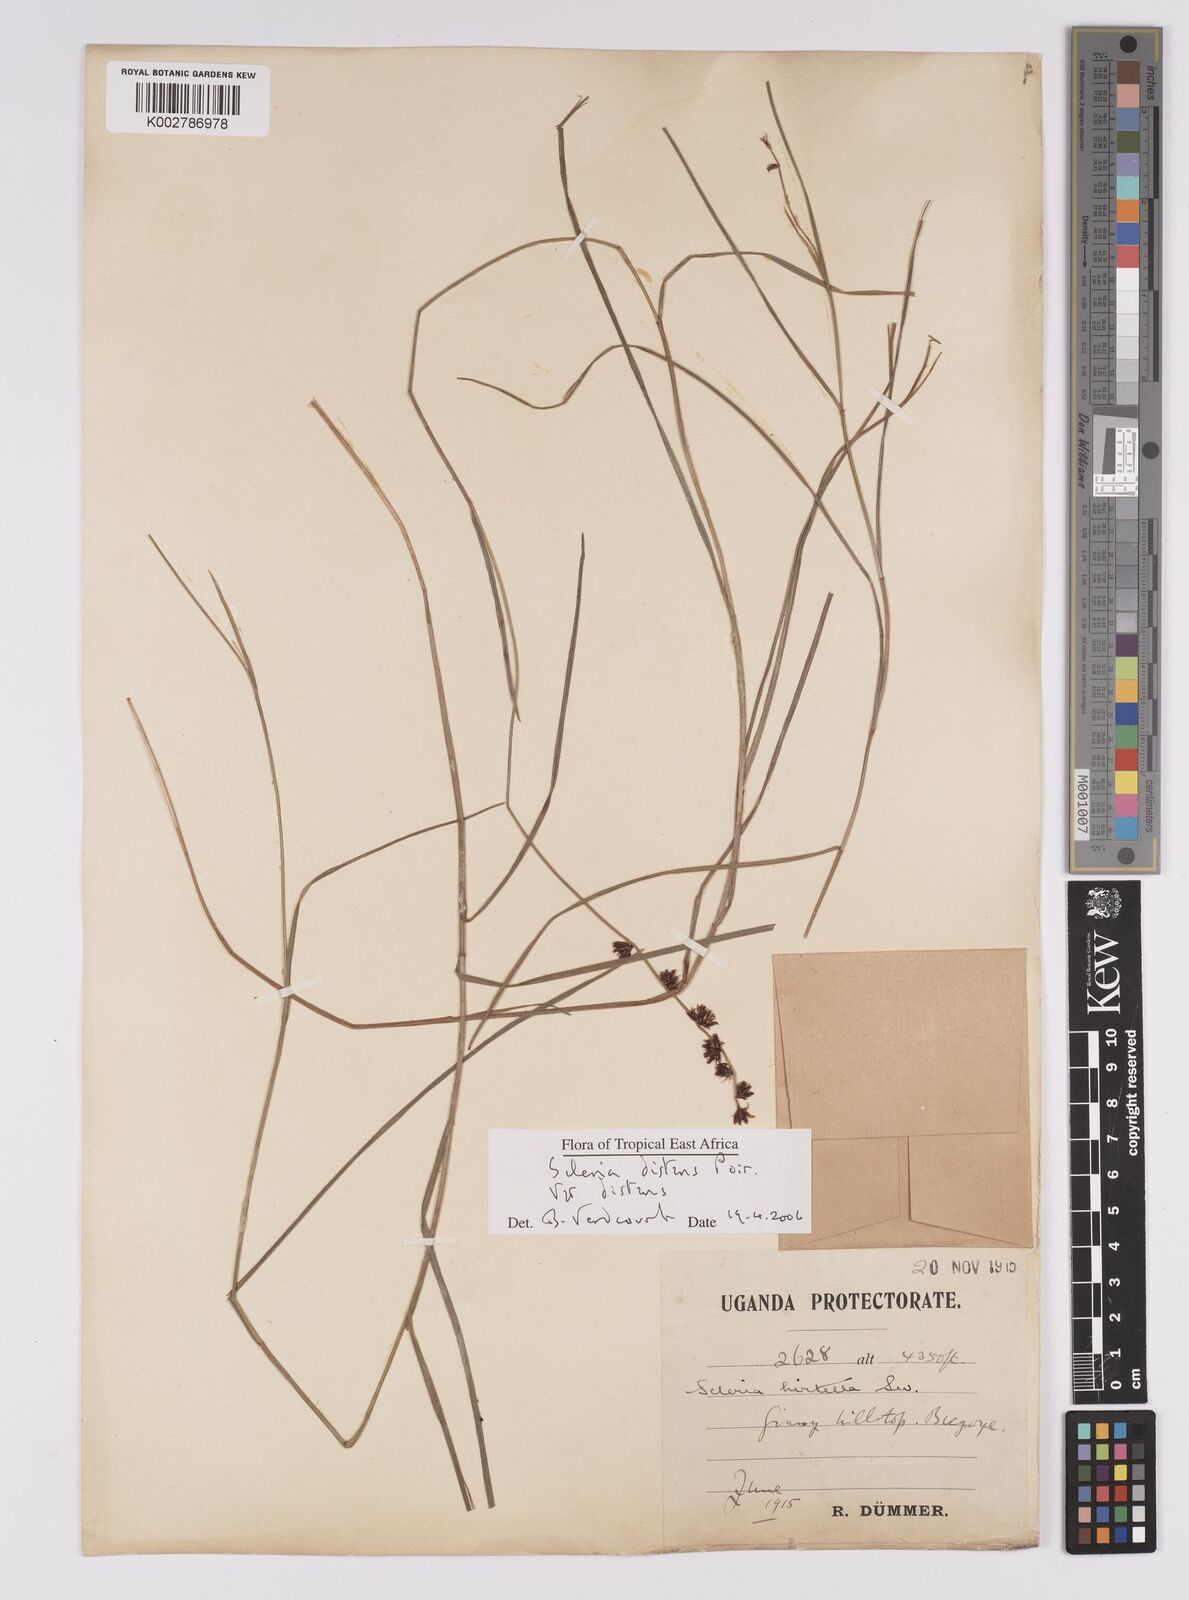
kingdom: Plantae
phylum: Tracheophyta
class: Liliopsida
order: Poales
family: Cyperaceae
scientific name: Cyperaceae
